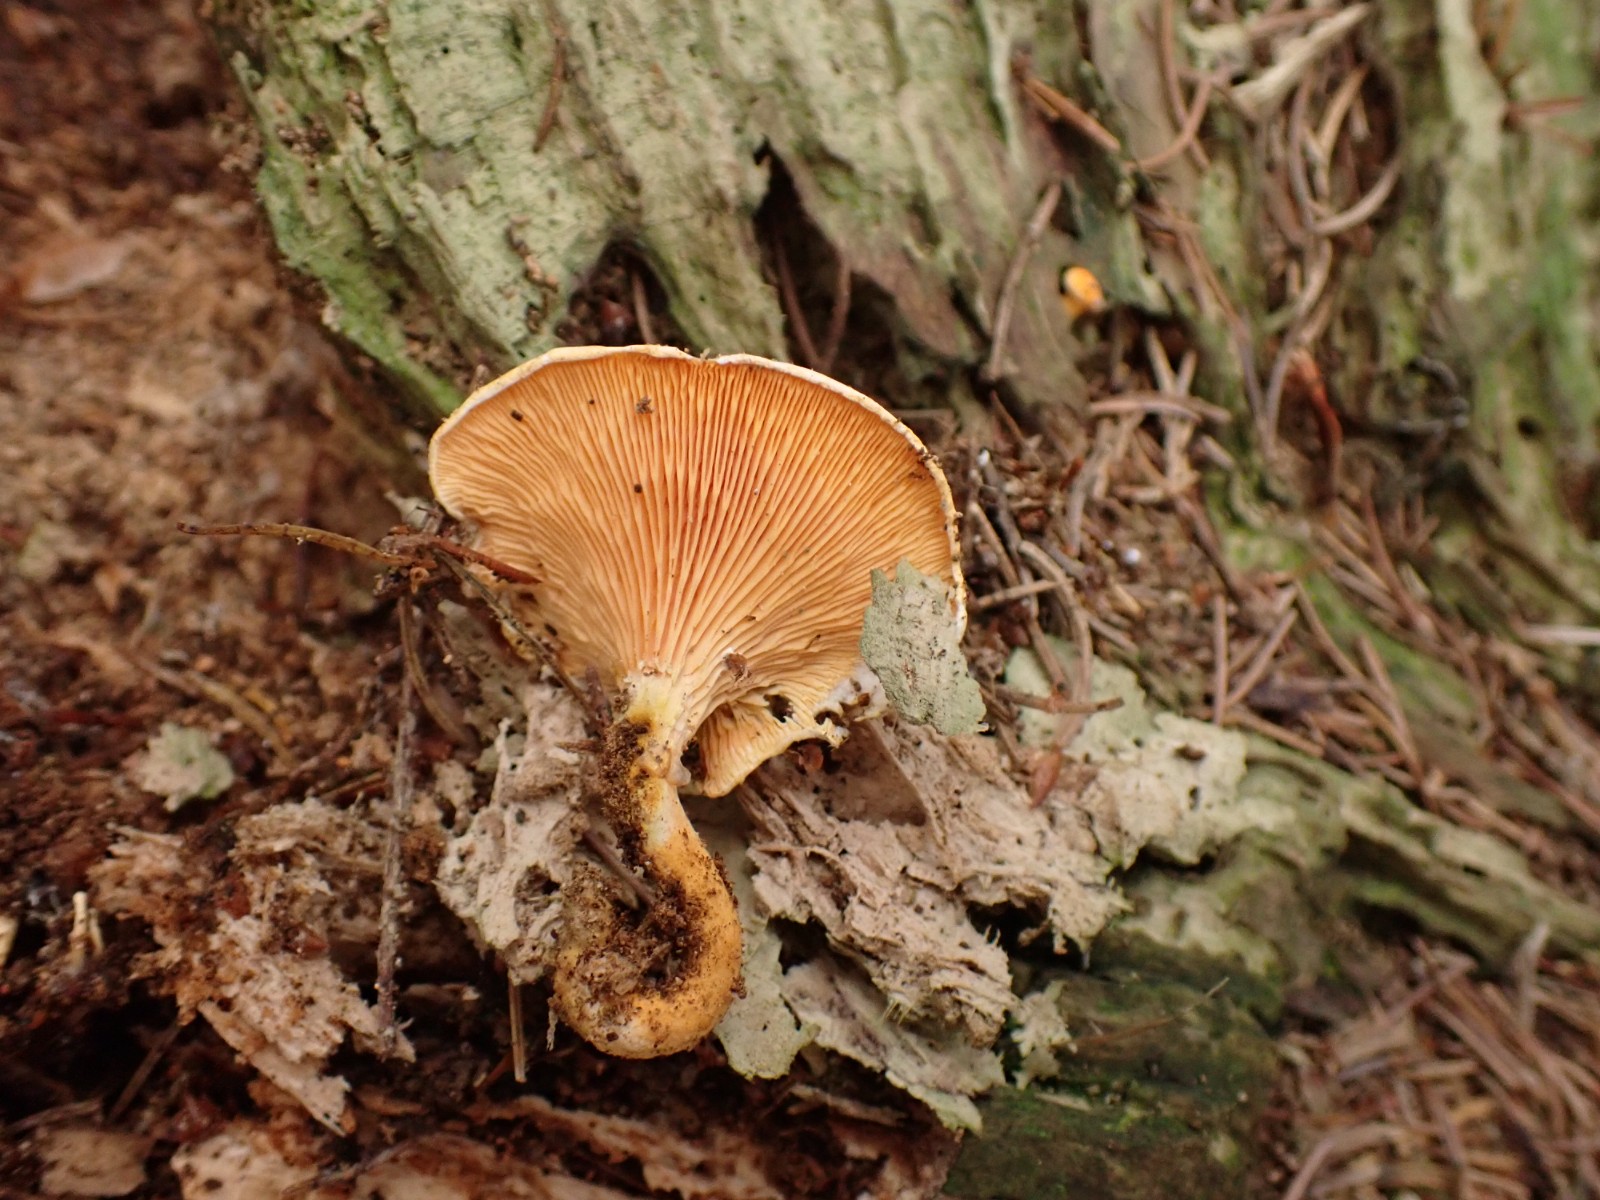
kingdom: Fungi
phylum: Basidiomycota
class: Agaricomycetes
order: Boletales
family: Hygrophoropsidaceae
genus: Hygrophoropsis
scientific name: Hygrophoropsis aurantiaca
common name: almindelig orangekantarel
